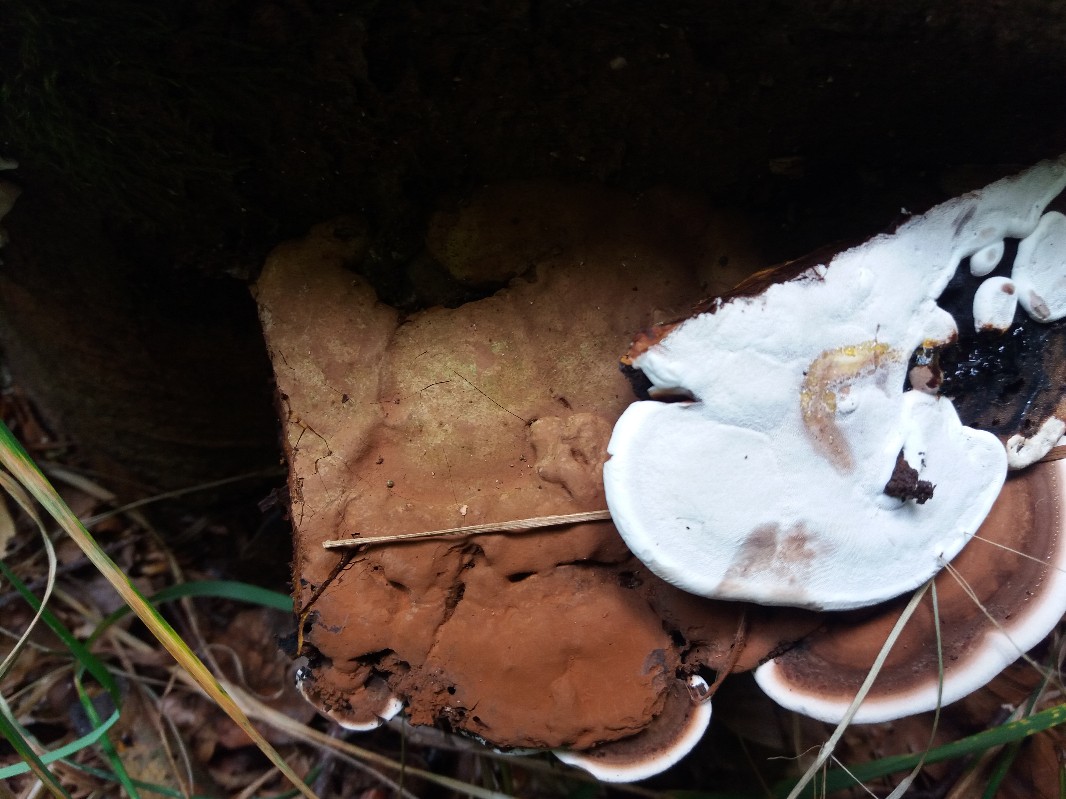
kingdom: Fungi
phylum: Basidiomycota
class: Agaricomycetes
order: Polyporales
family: Polyporaceae
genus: Ganoderma
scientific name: Ganoderma applanatum
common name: flad lakporesvamp
